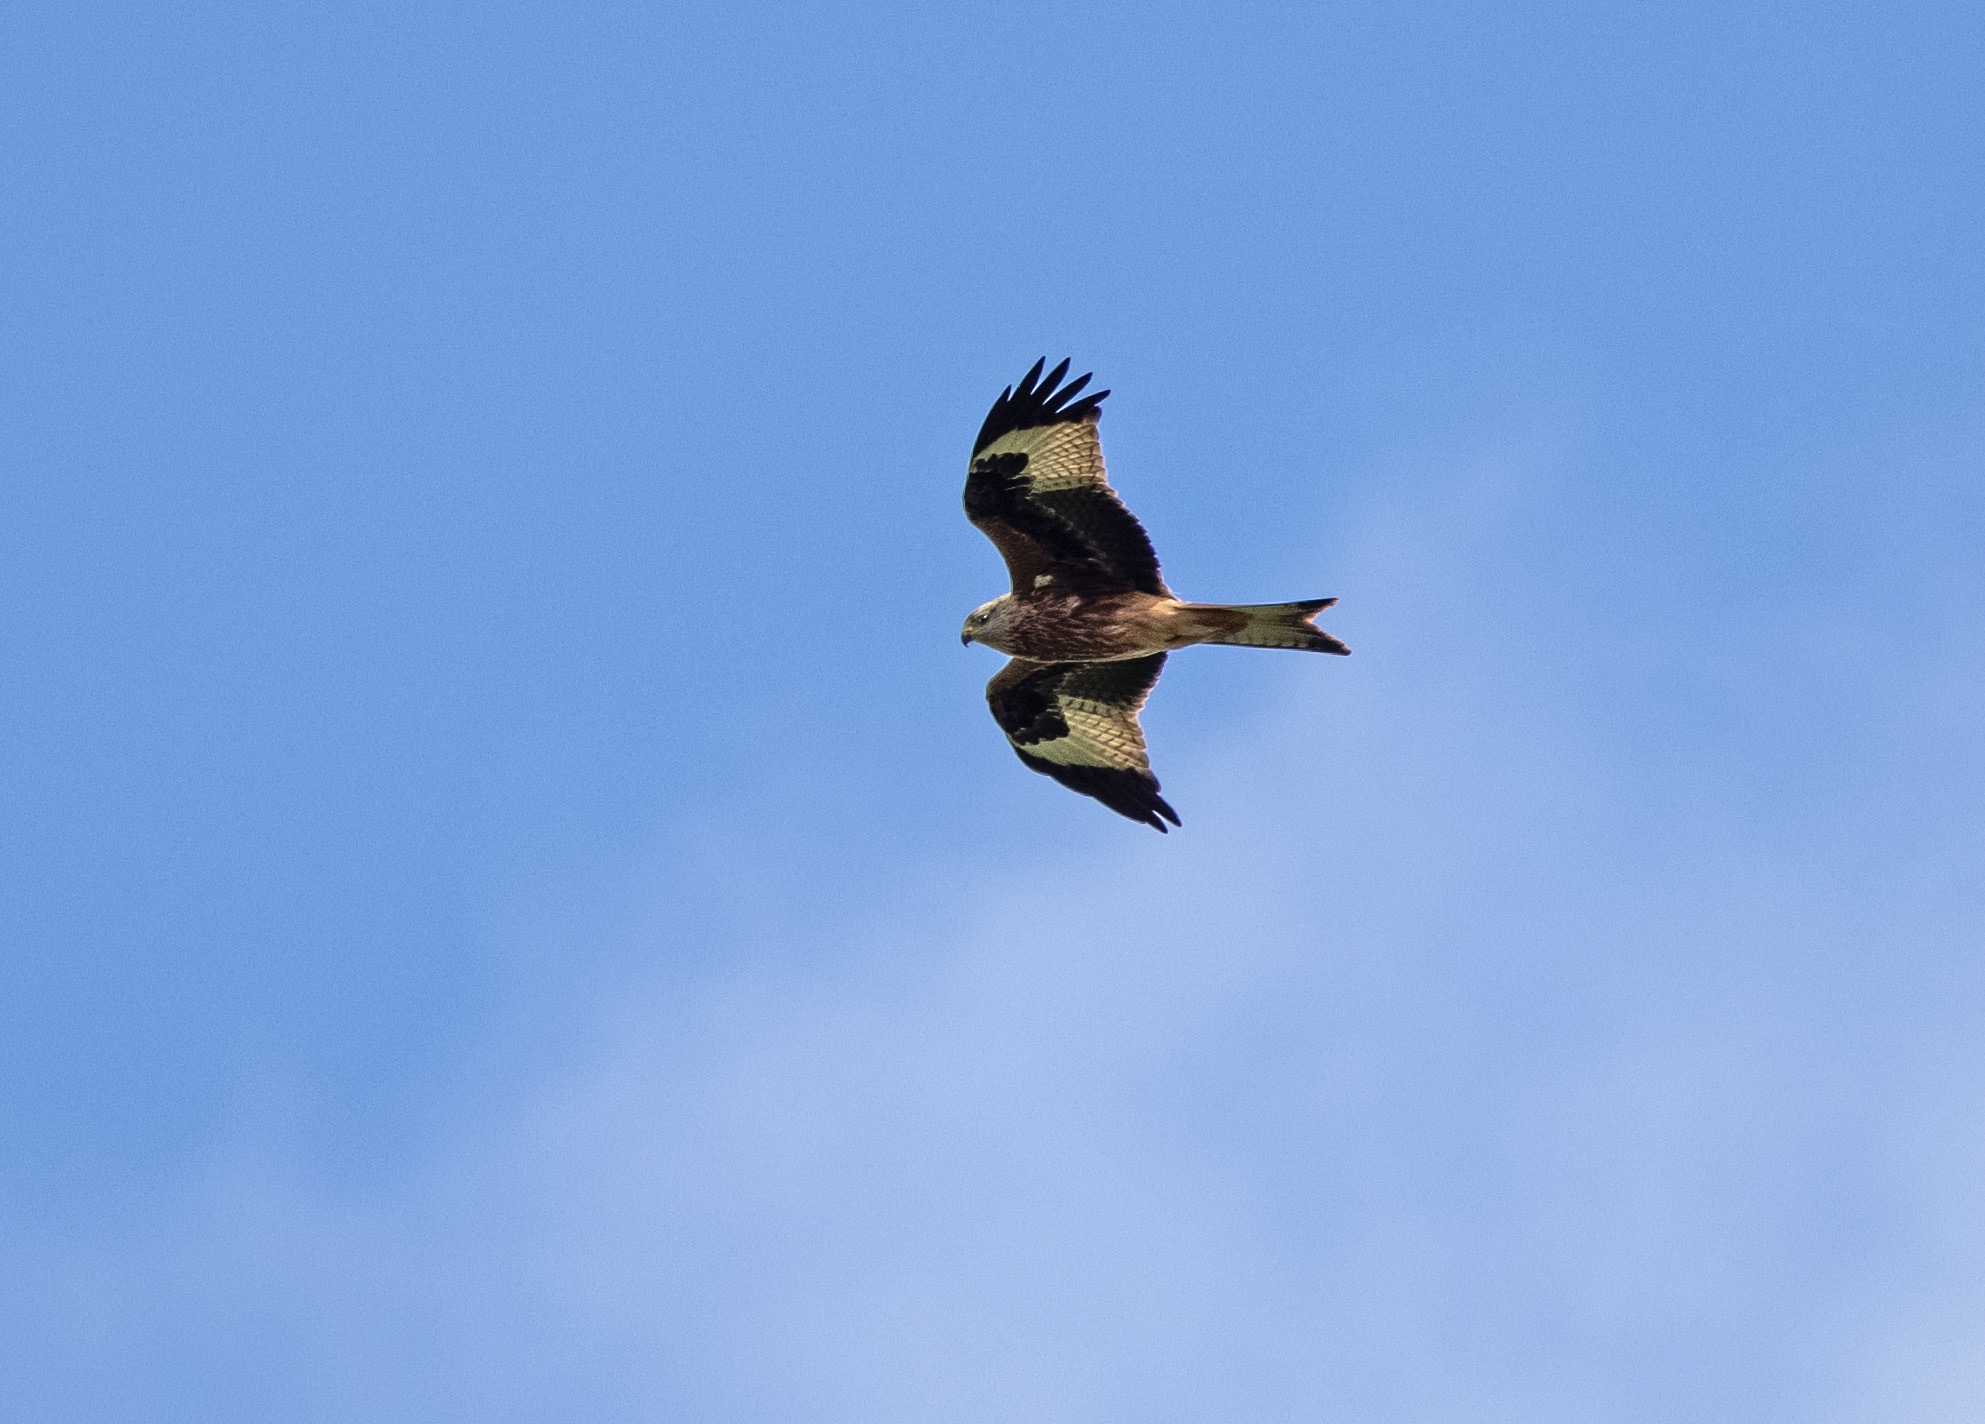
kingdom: Animalia
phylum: Chordata
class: Aves
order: Accipitriformes
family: Accipitridae
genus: Milvus
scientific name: Milvus milvus
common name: Rød glente
